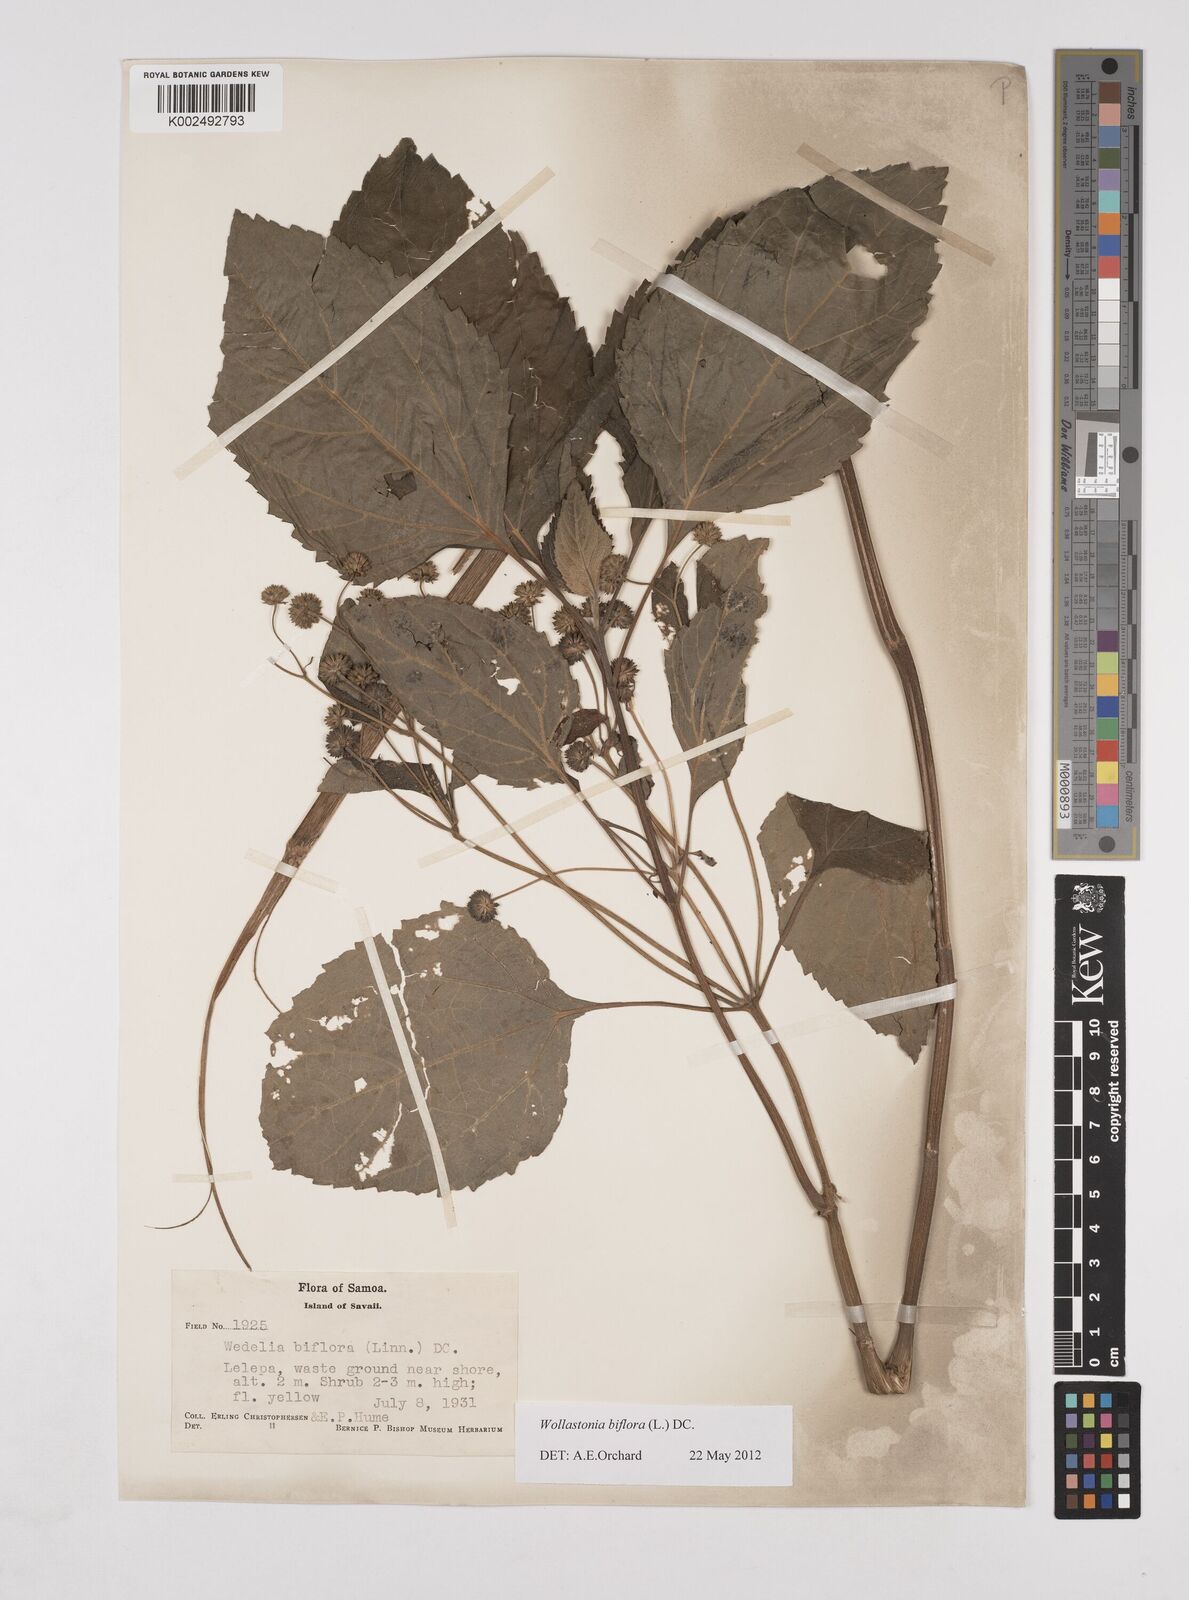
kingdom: Plantae
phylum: Tracheophyta
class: Magnoliopsida
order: Asterales
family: Asteraceae
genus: Wollastonia
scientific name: Wollastonia biflora
